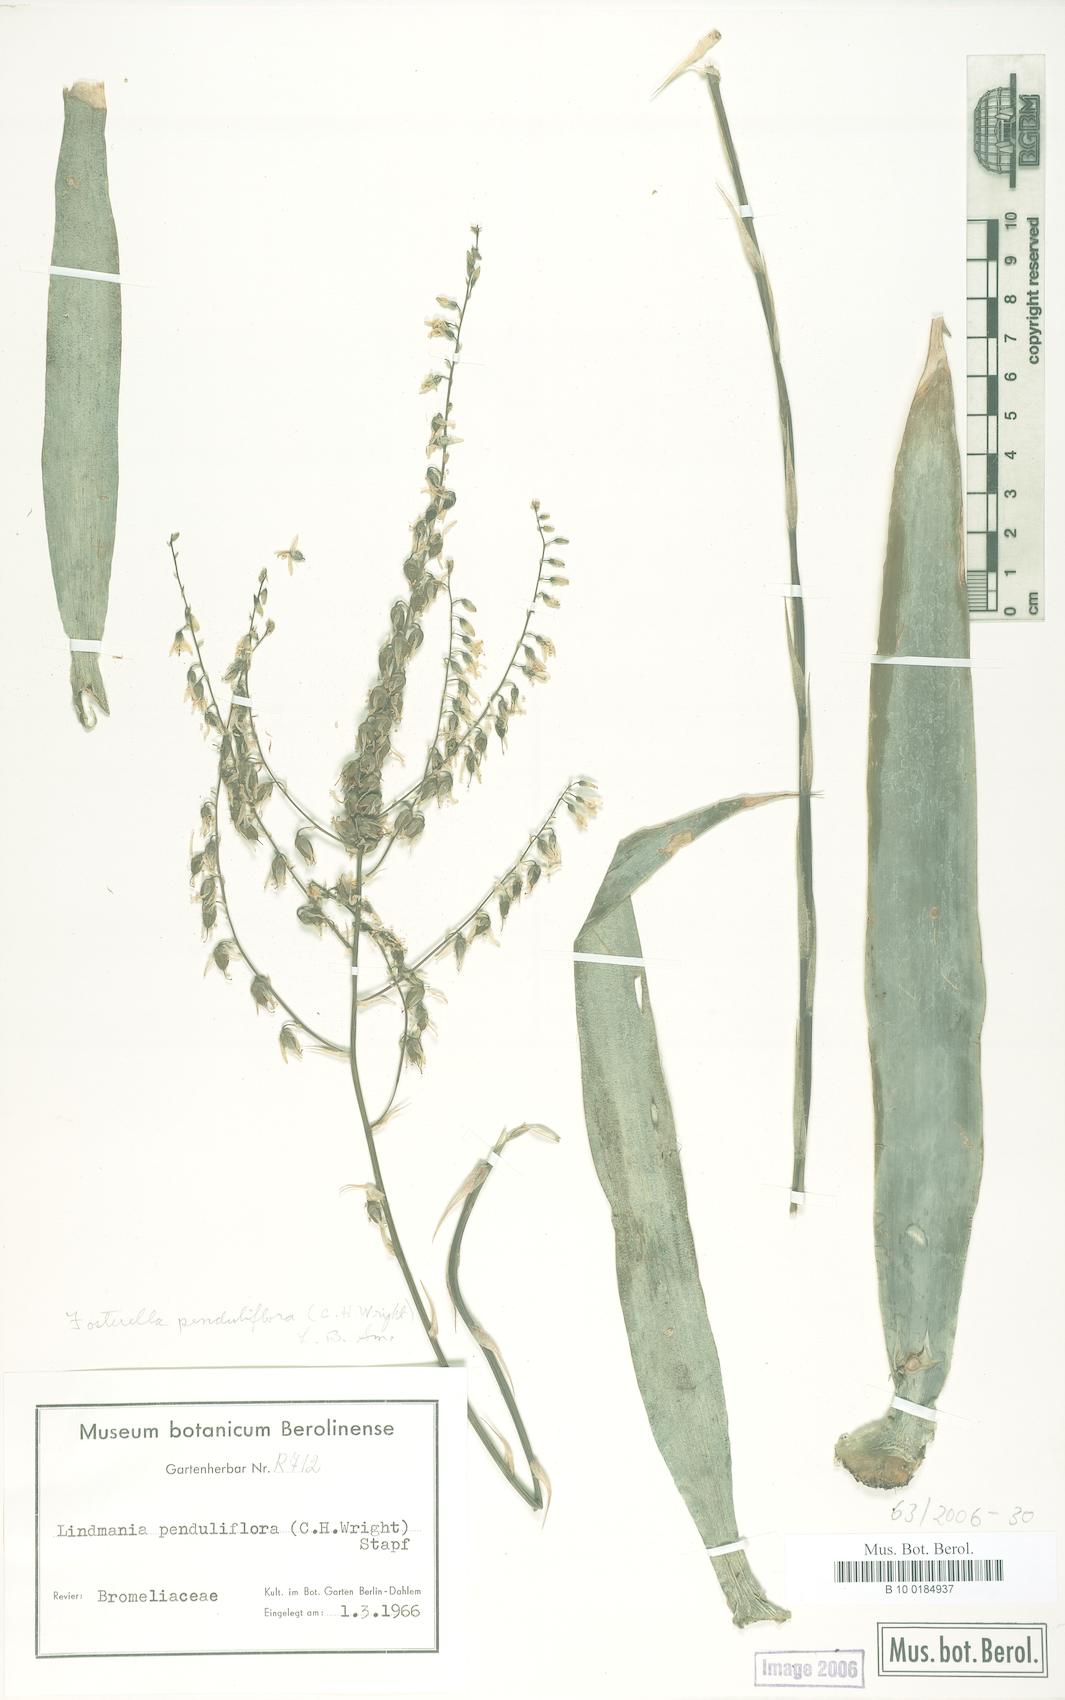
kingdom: Plantae
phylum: Tracheophyta
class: Liliopsida
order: Poales
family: Bromeliaceae
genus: Fosterella
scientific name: Fosterella penduliflora
